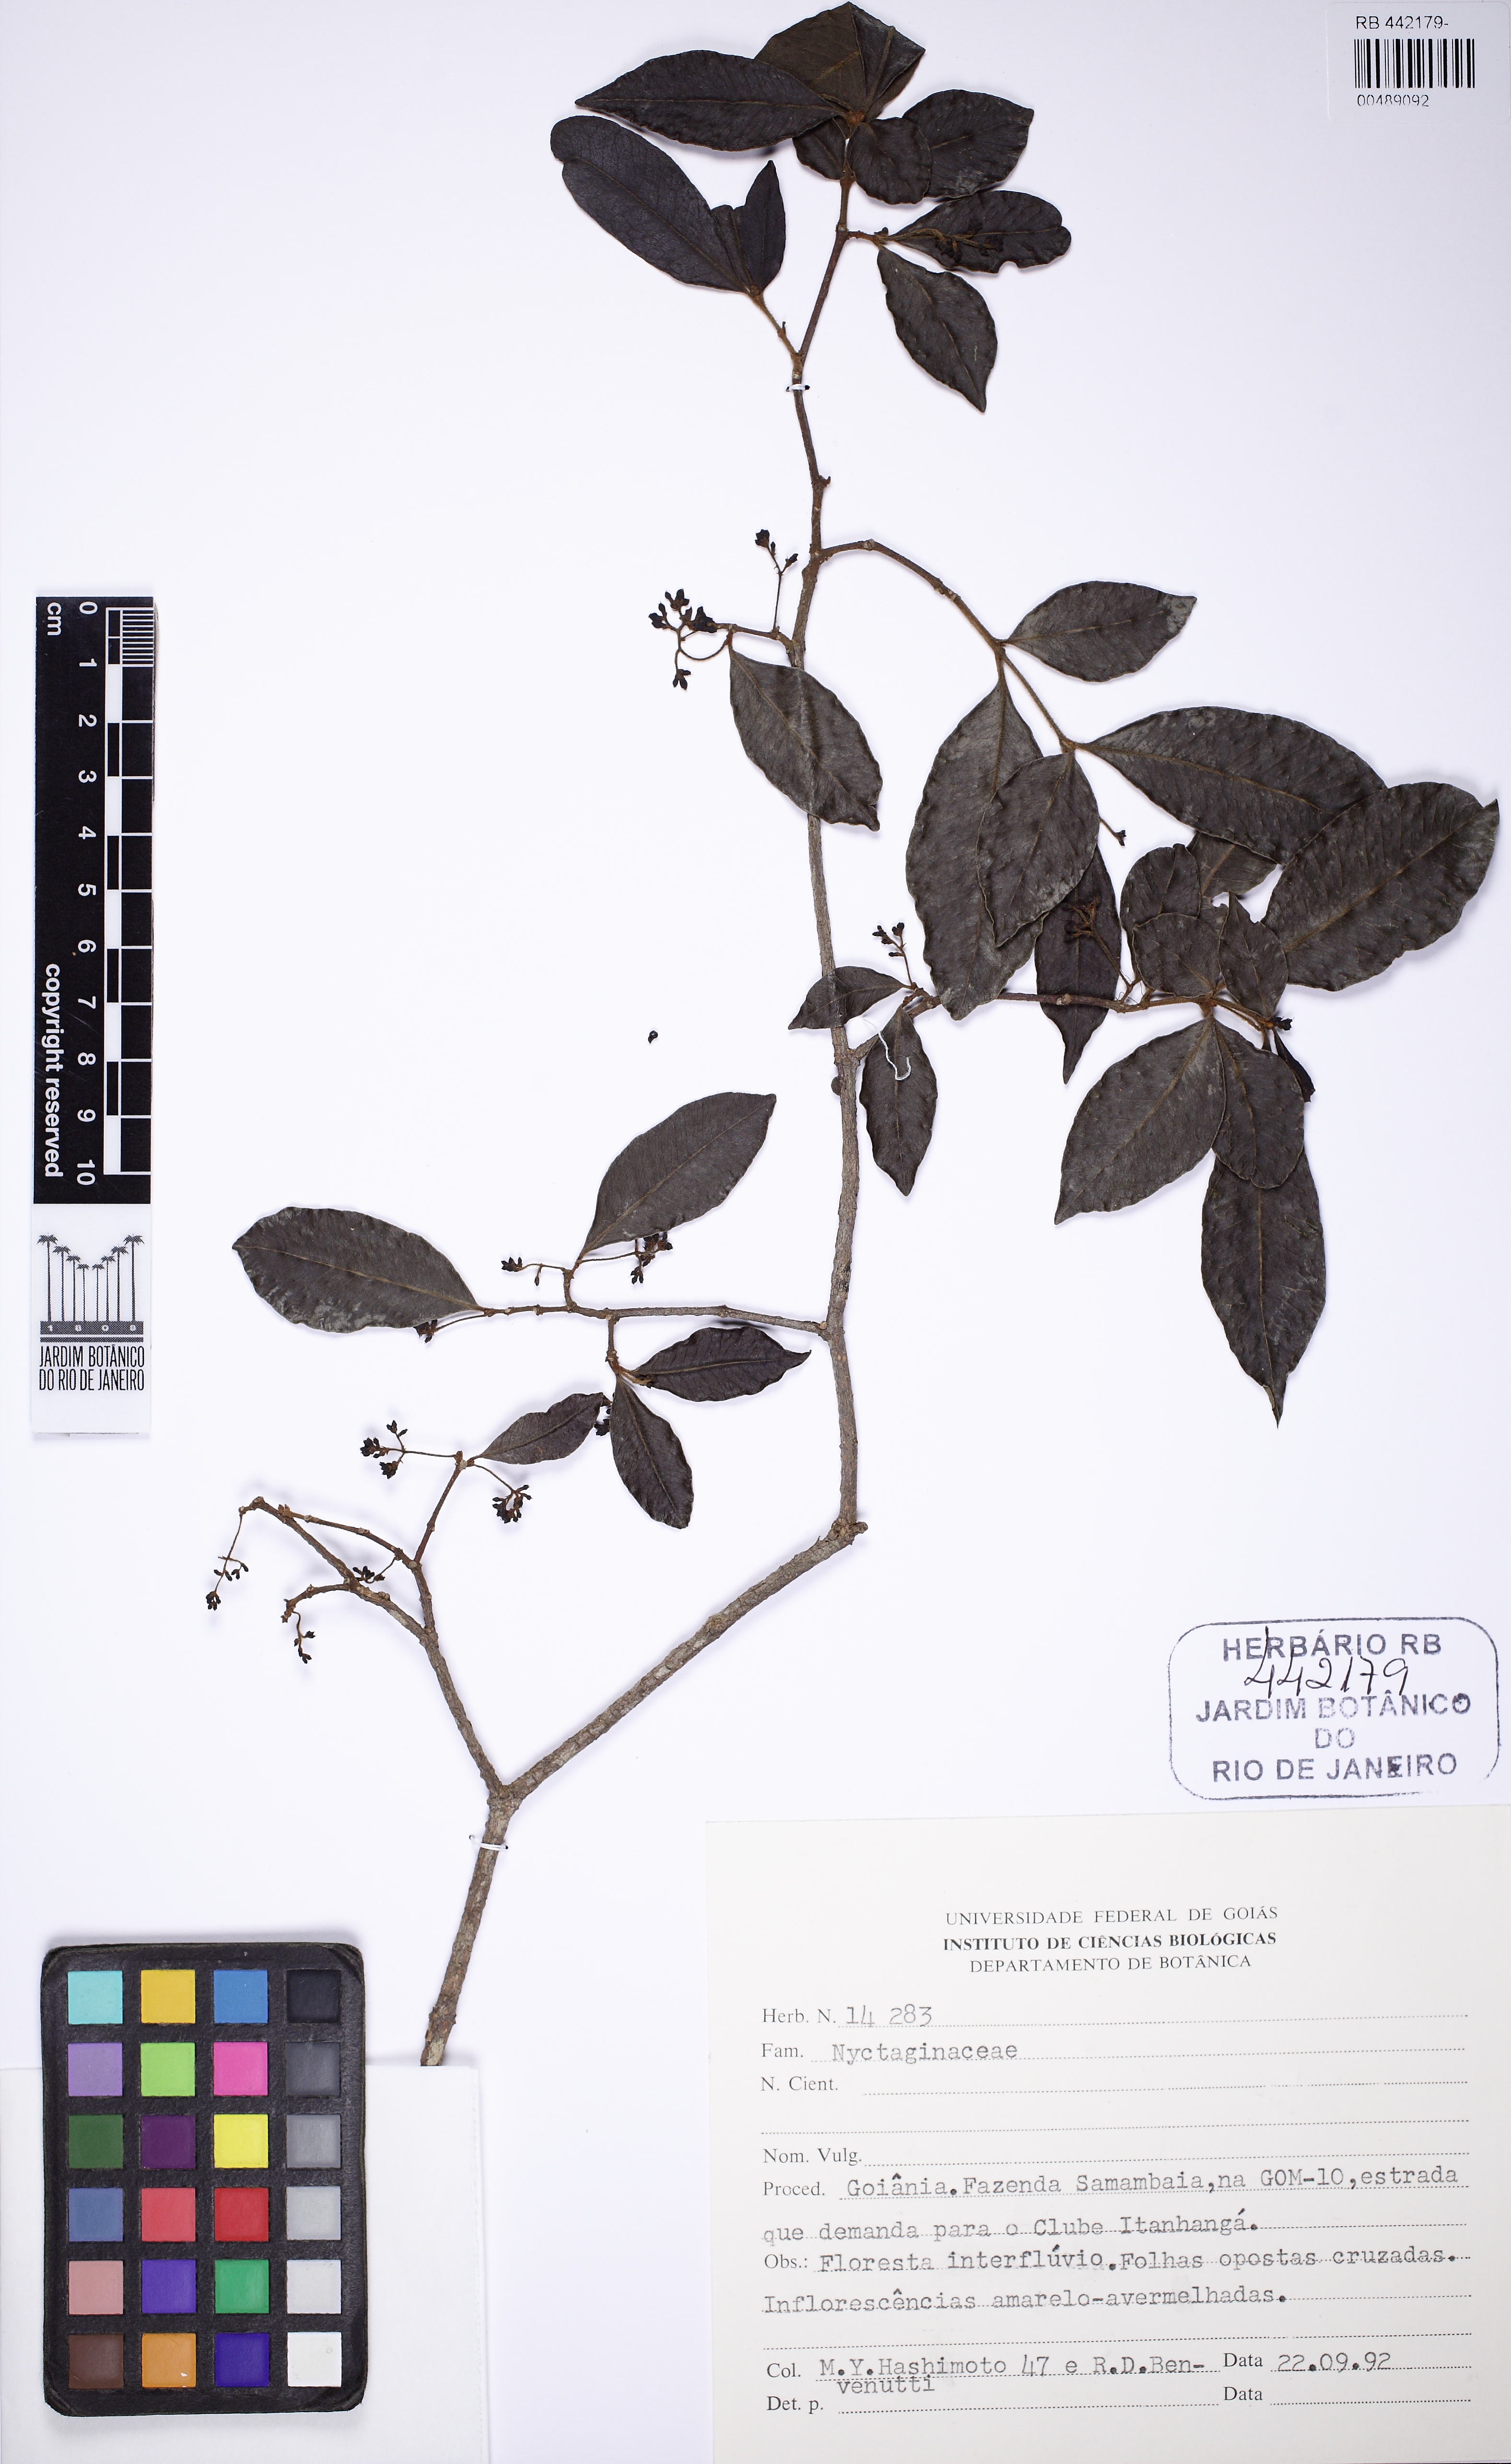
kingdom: Plantae
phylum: Tracheophyta
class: Magnoliopsida
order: Caryophyllales
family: Nyctaginaceae
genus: Neea
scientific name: Neea hermaphrodita
